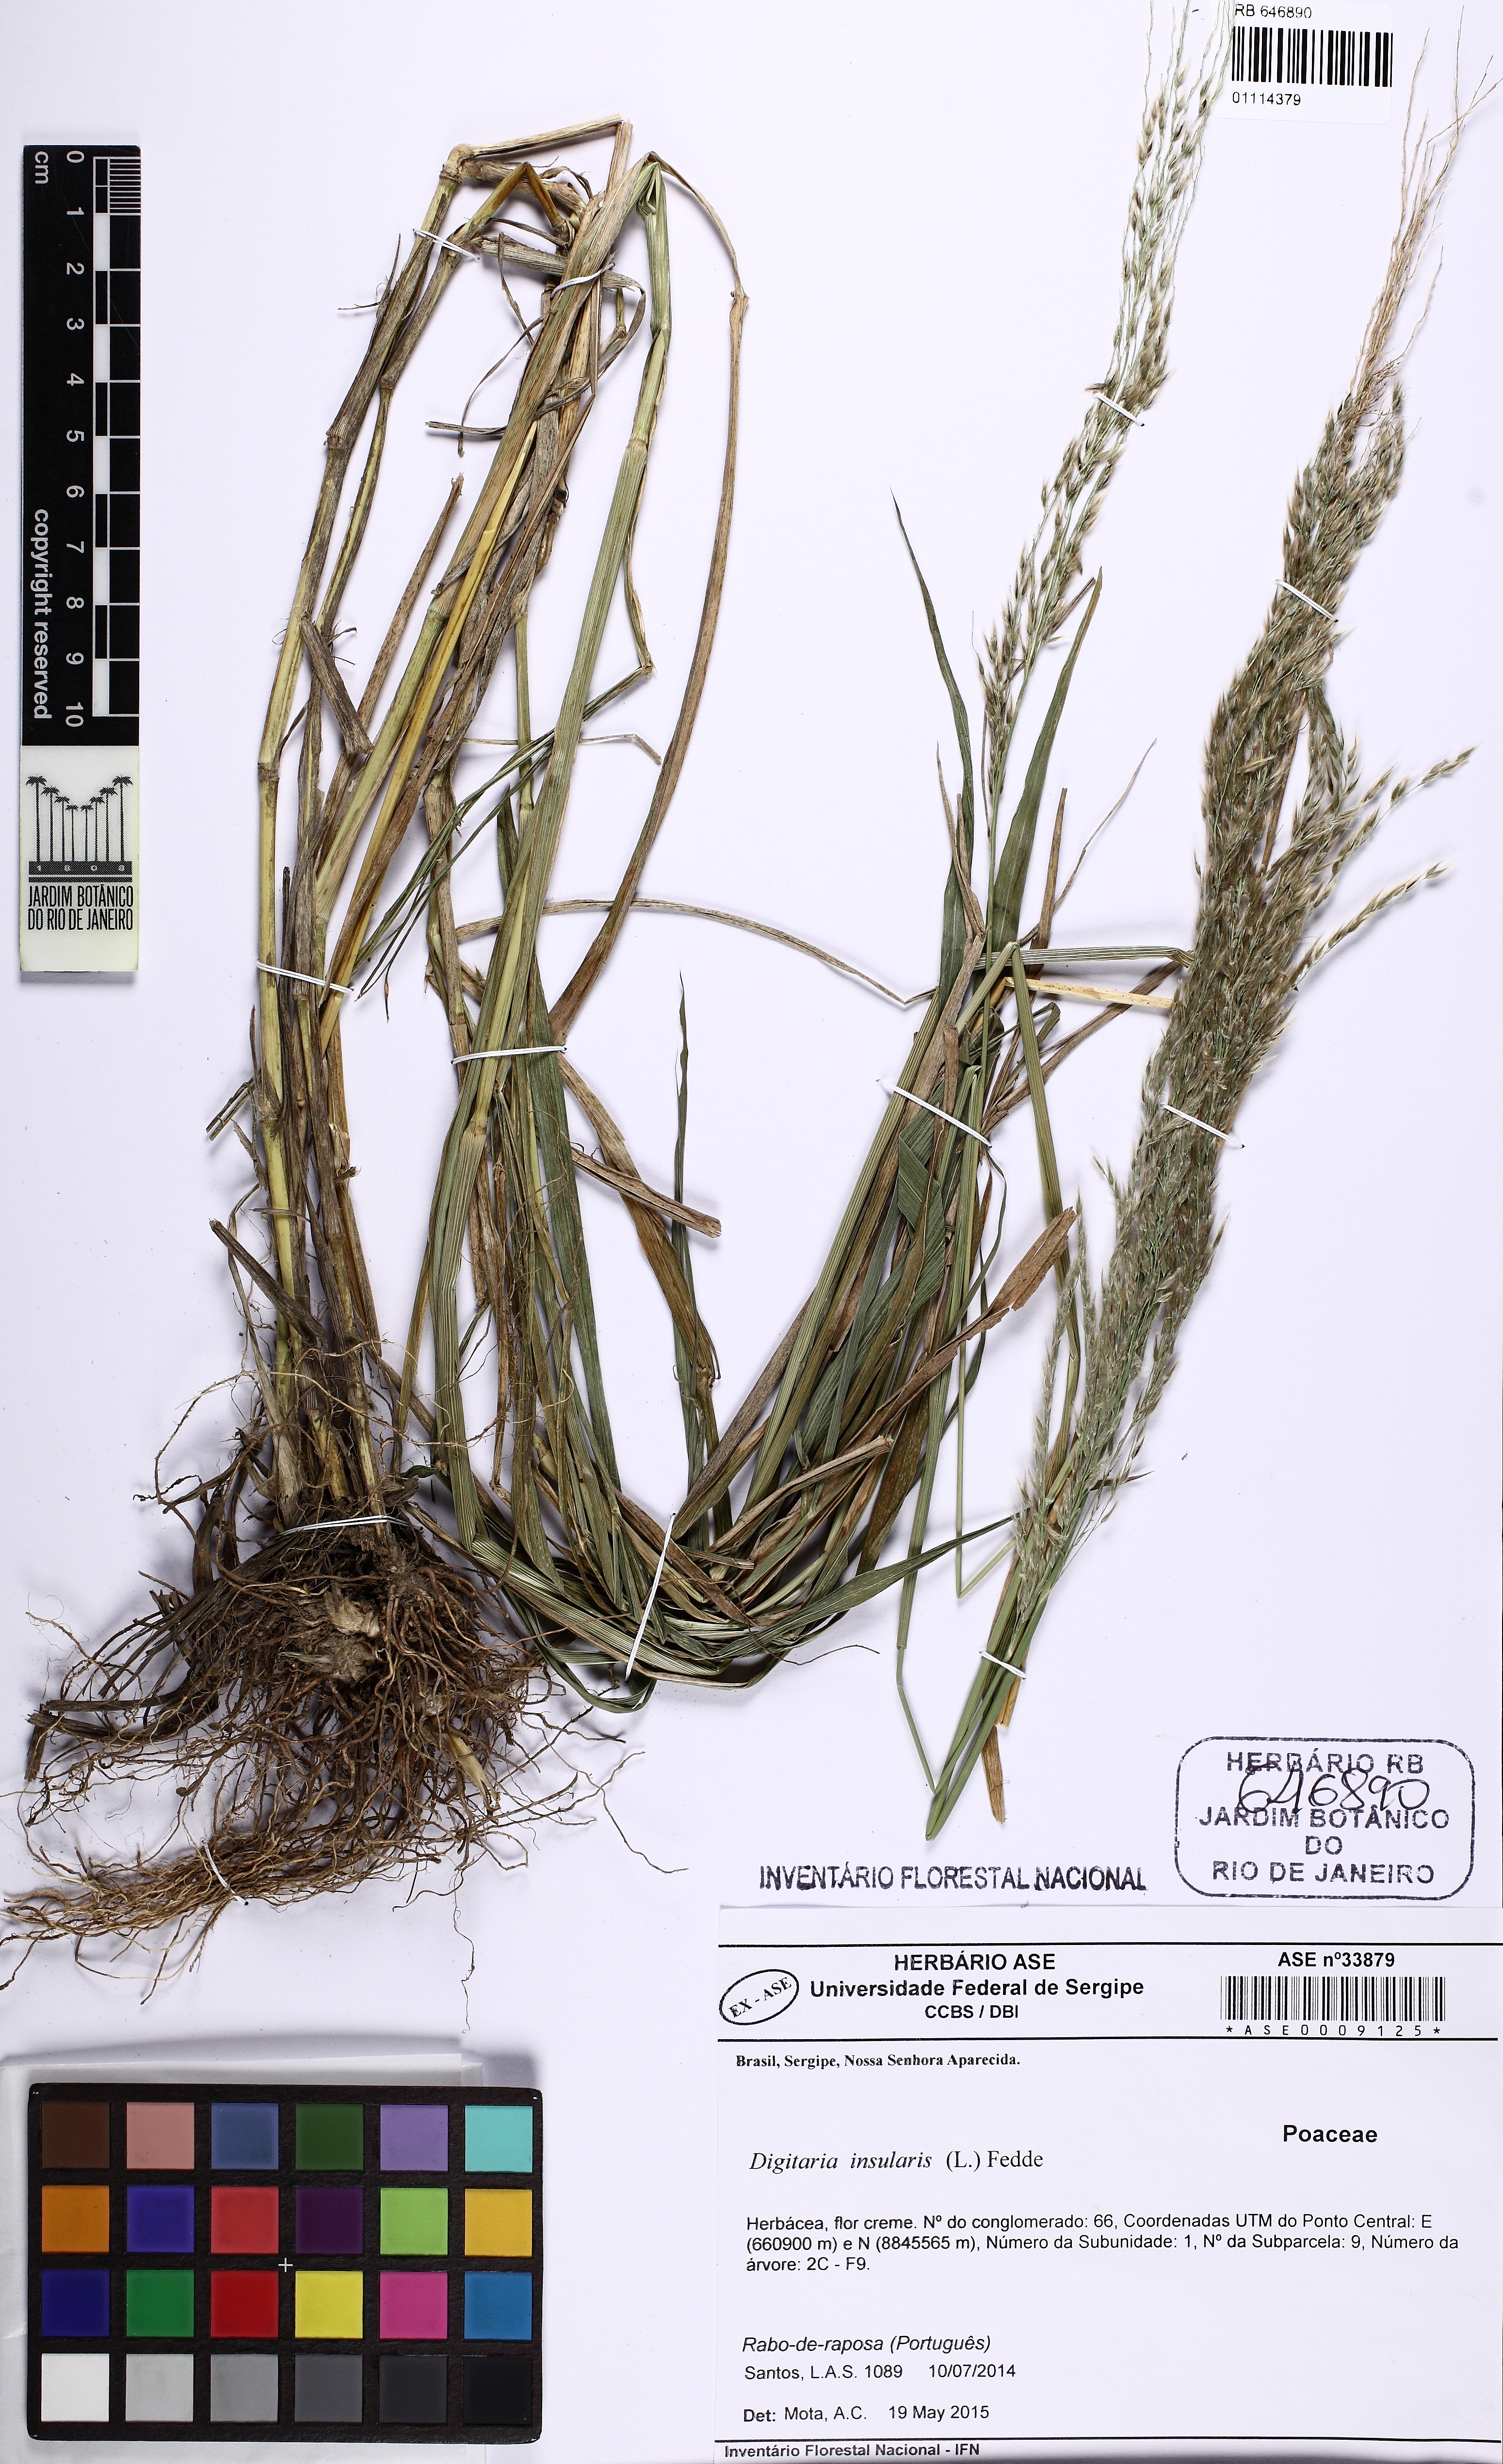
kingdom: Plantae
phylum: Tracheophyta
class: Liliopsida
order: Poales
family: Poaceae
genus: Digitaria
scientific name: Digitaria insularis
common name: Sourgrass
